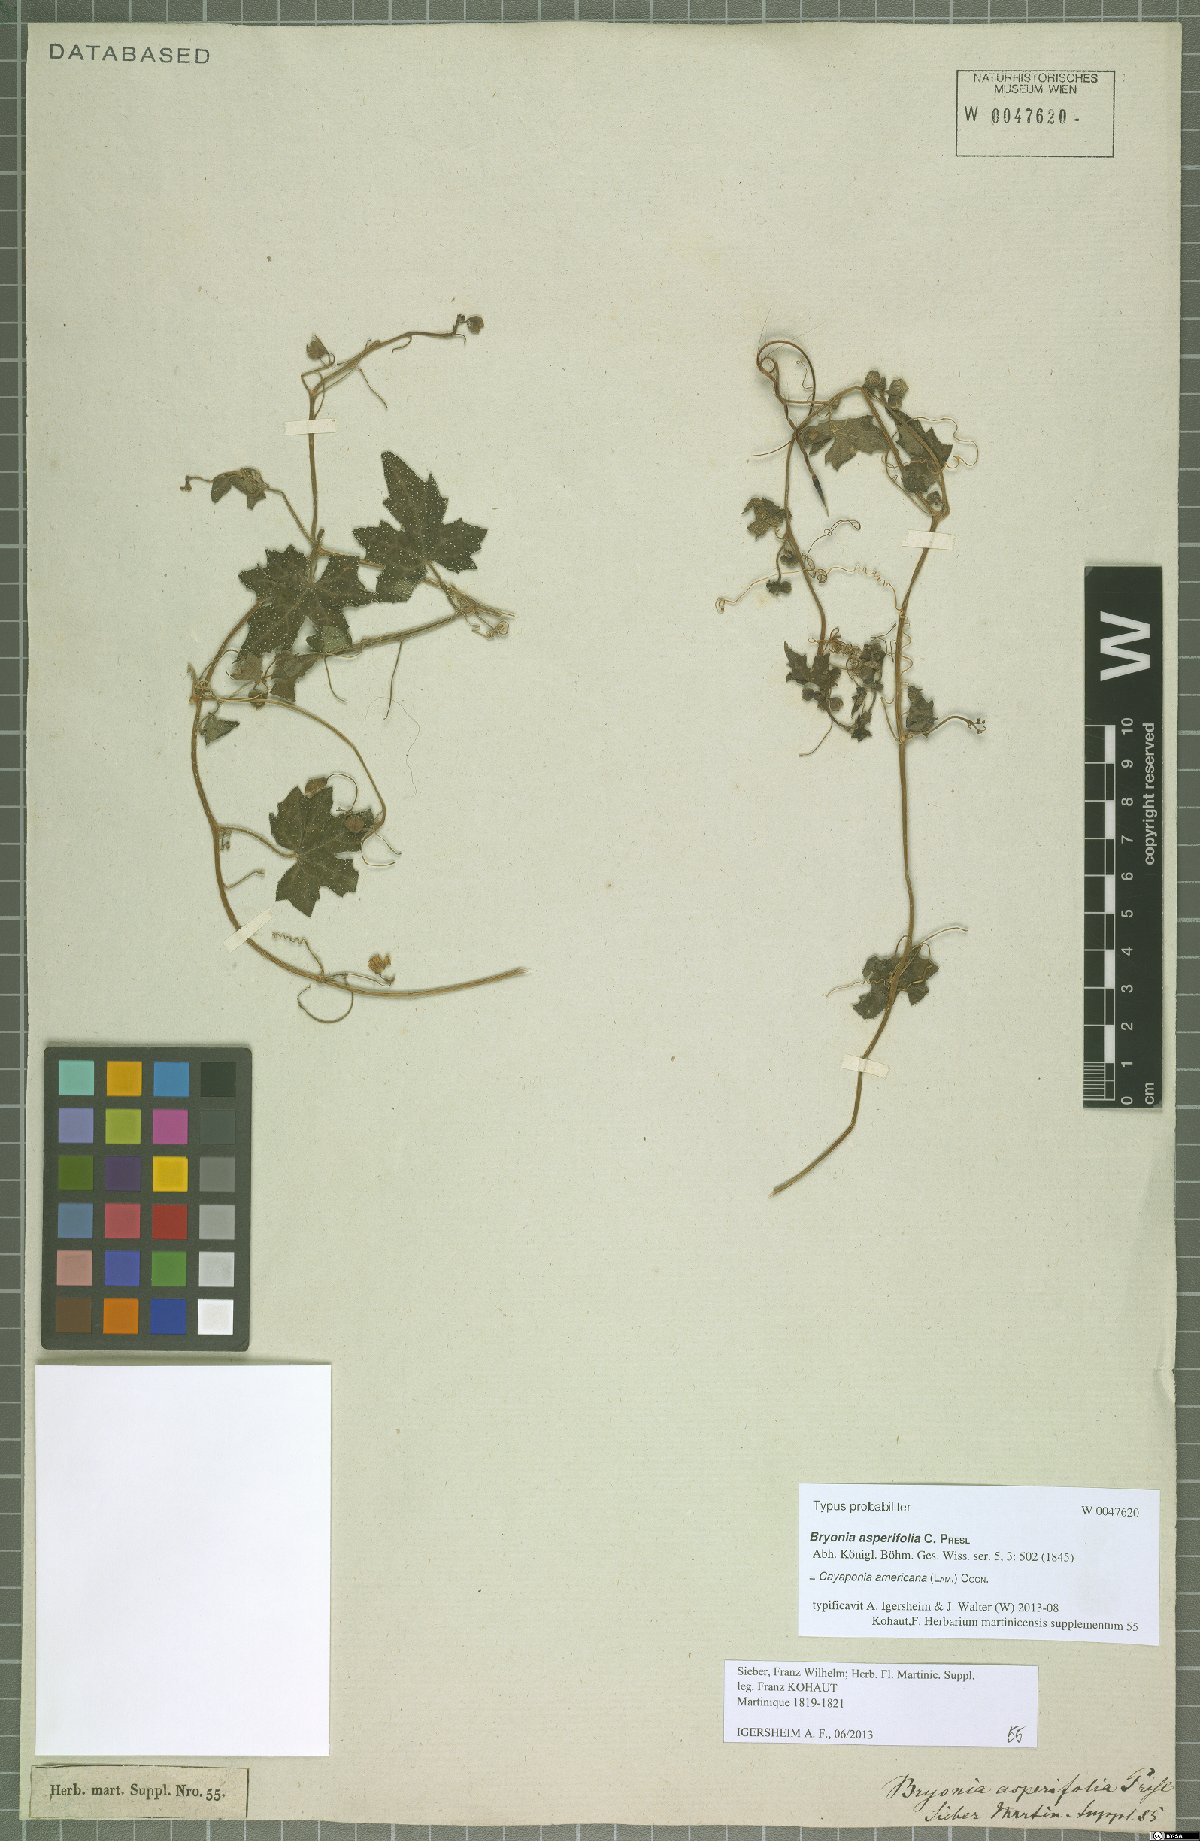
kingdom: Plantae
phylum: Tracheophyta
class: Magnoliopsida
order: Cucurbitales
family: Cucurbitaceae
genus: Cayaponia
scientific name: Cayaponia americana
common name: American melonleaf
